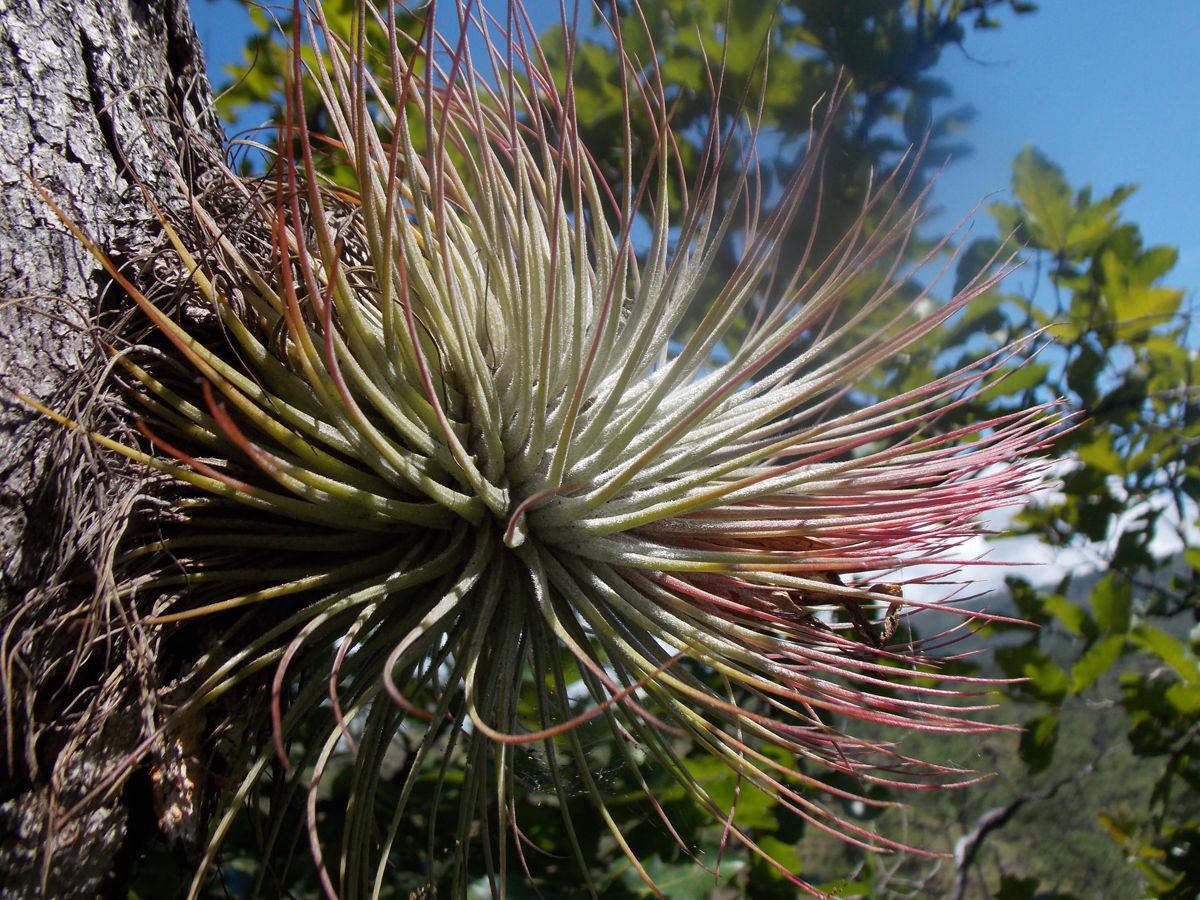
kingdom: Plantae
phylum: Tracheophyta
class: Liliopsida
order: Poales
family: Bromeliaceae
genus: Tillandsia
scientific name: Tillandsia magnusiana
